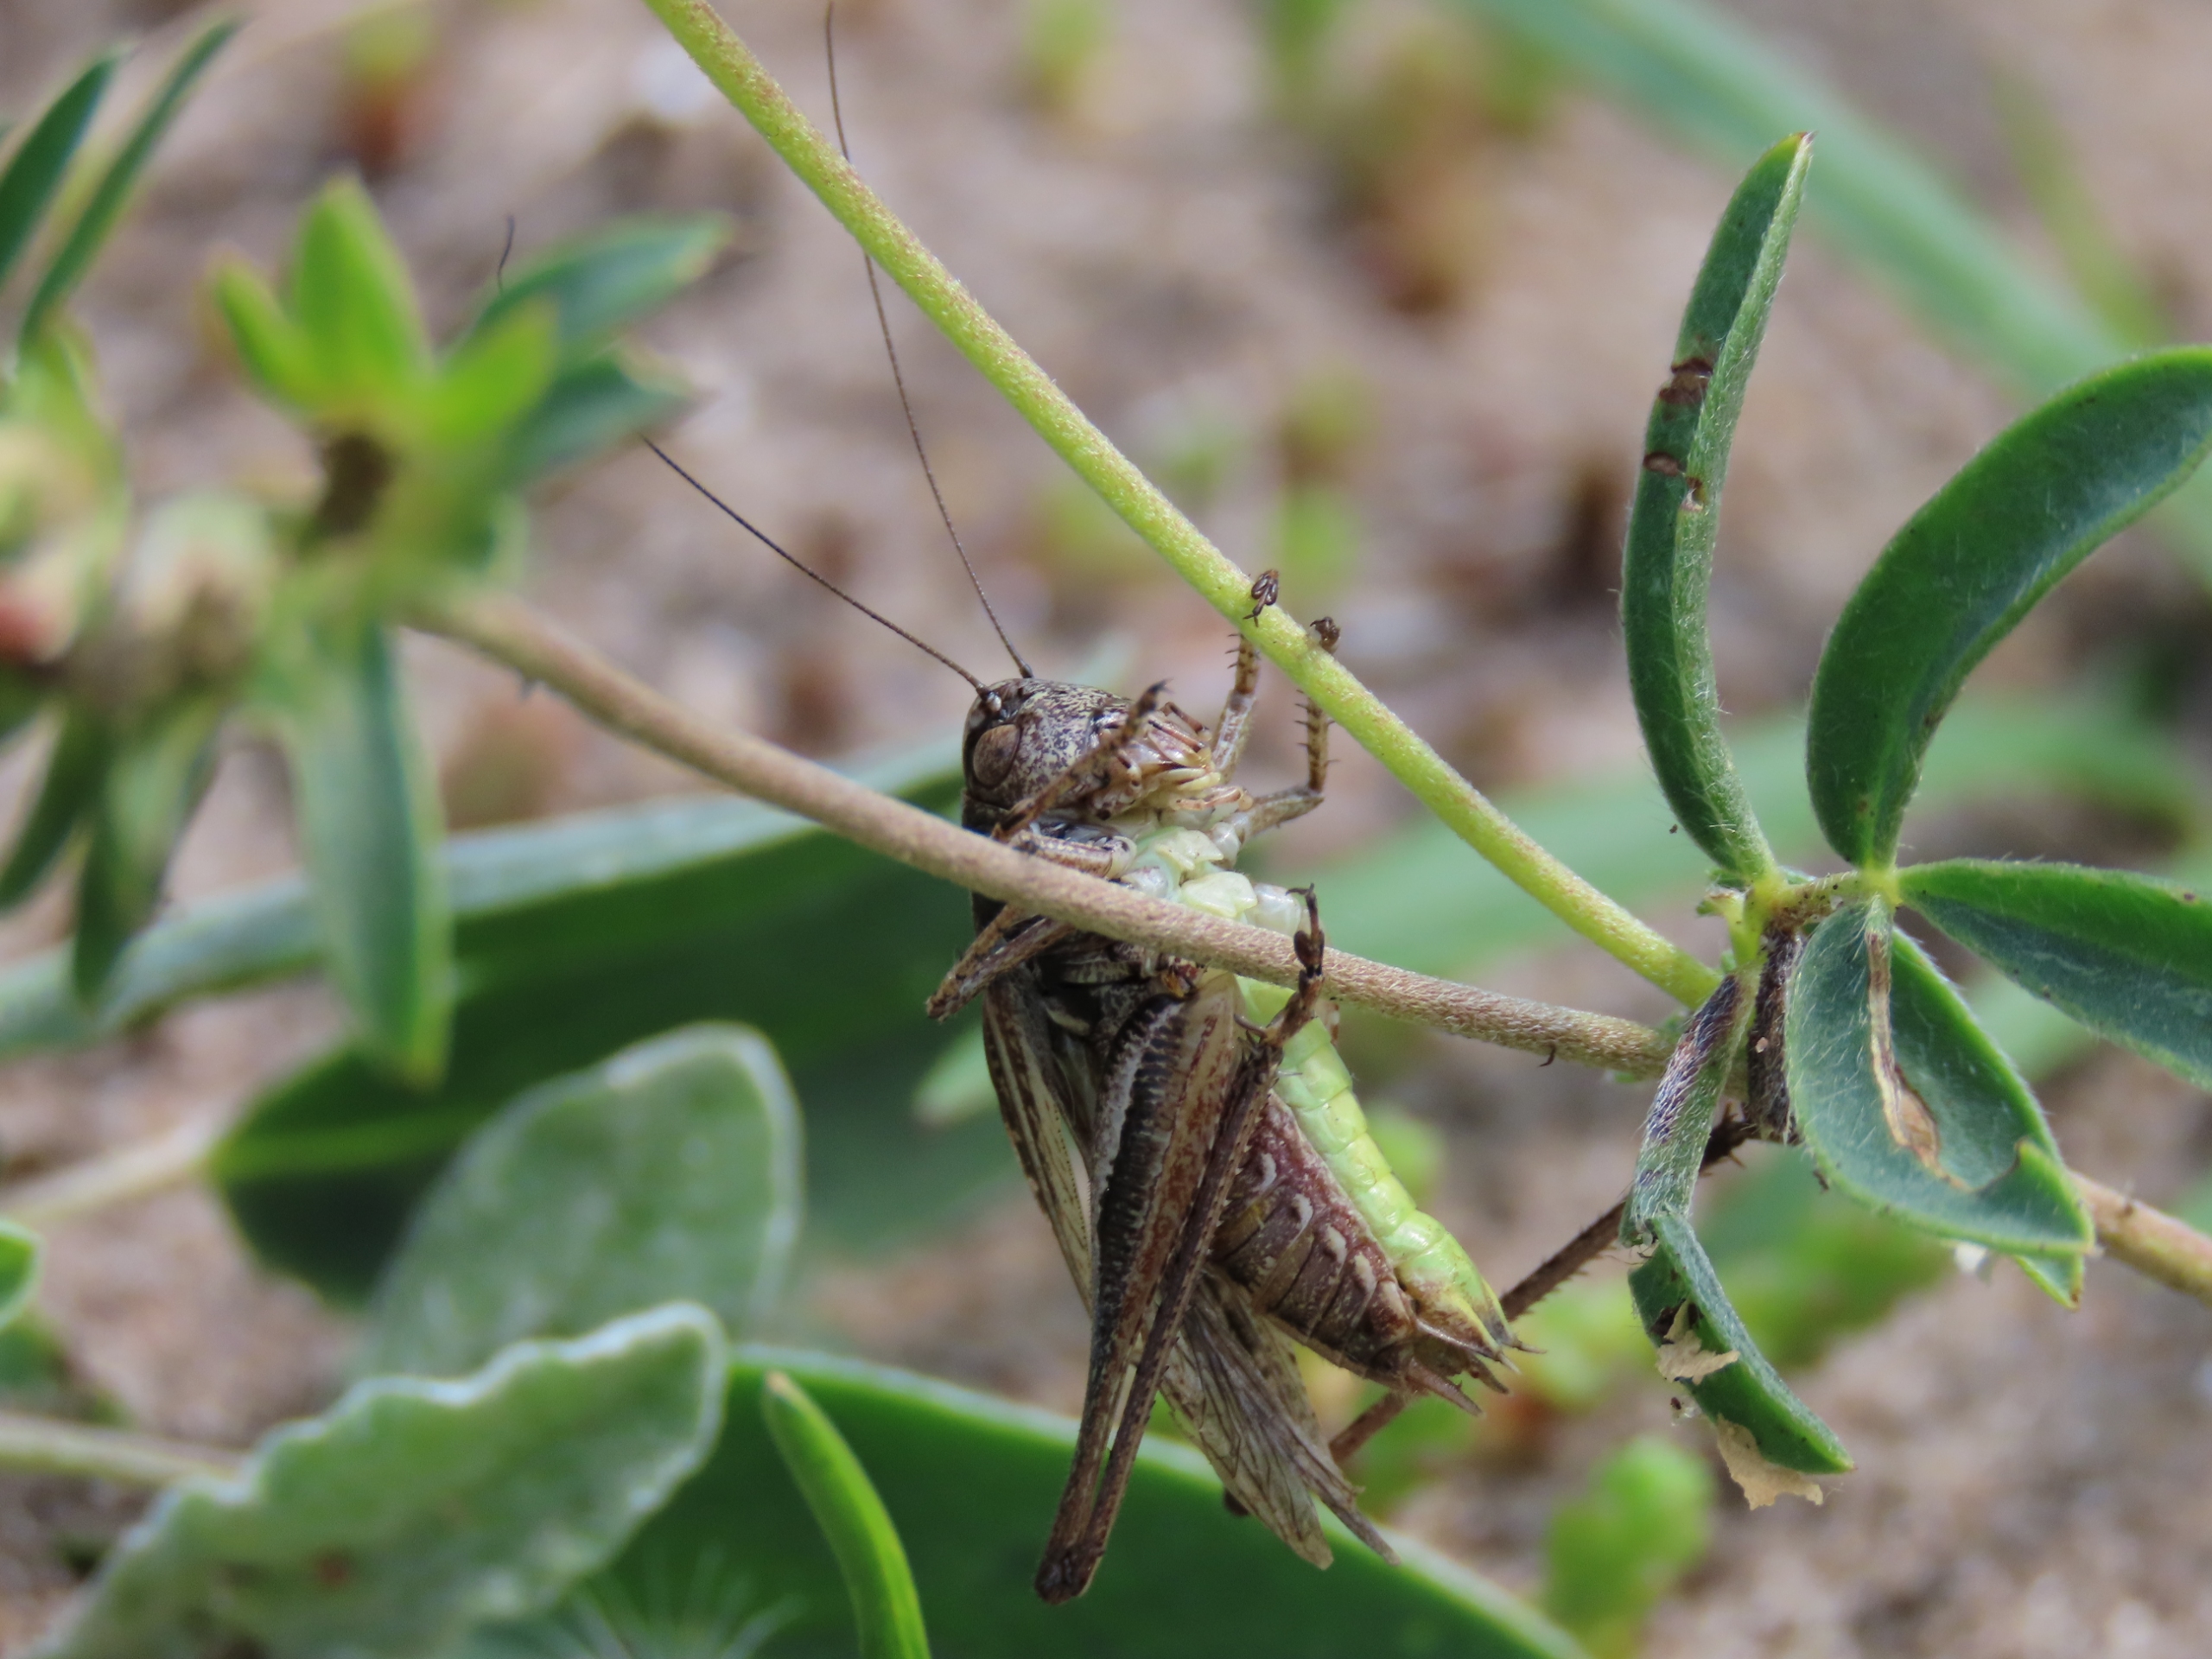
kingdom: Animalia
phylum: Arthropoda
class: Insecta
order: Orthoptera
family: Tettigoniidae
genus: Platycleis
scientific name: Platycleis albopunctata
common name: Sandgræshoppe
